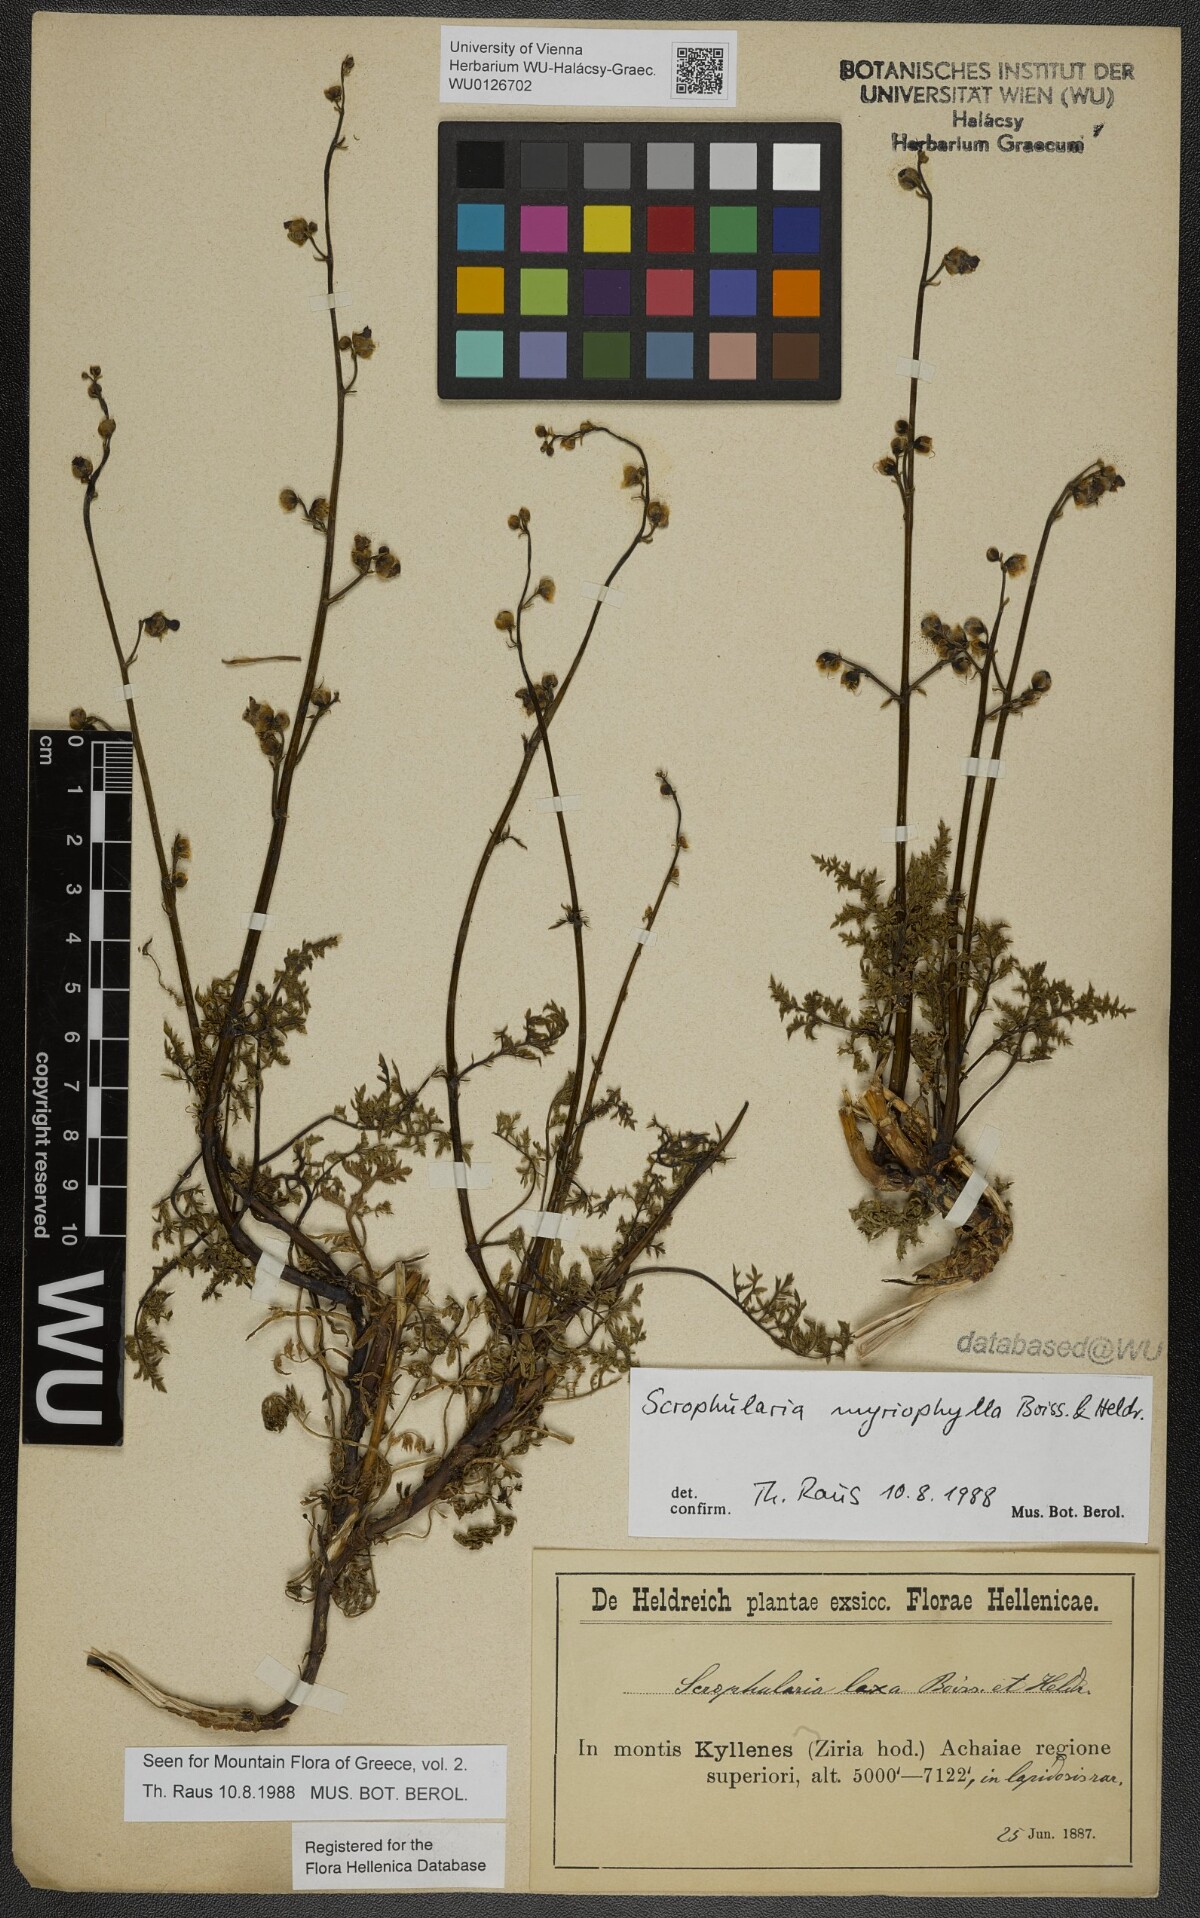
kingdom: Plantae
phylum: Tracheophyta
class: Magnoliopsida
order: Lamiales
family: Scrophulariaceae
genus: Scrophularia
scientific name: Scrophularia myriophylla
